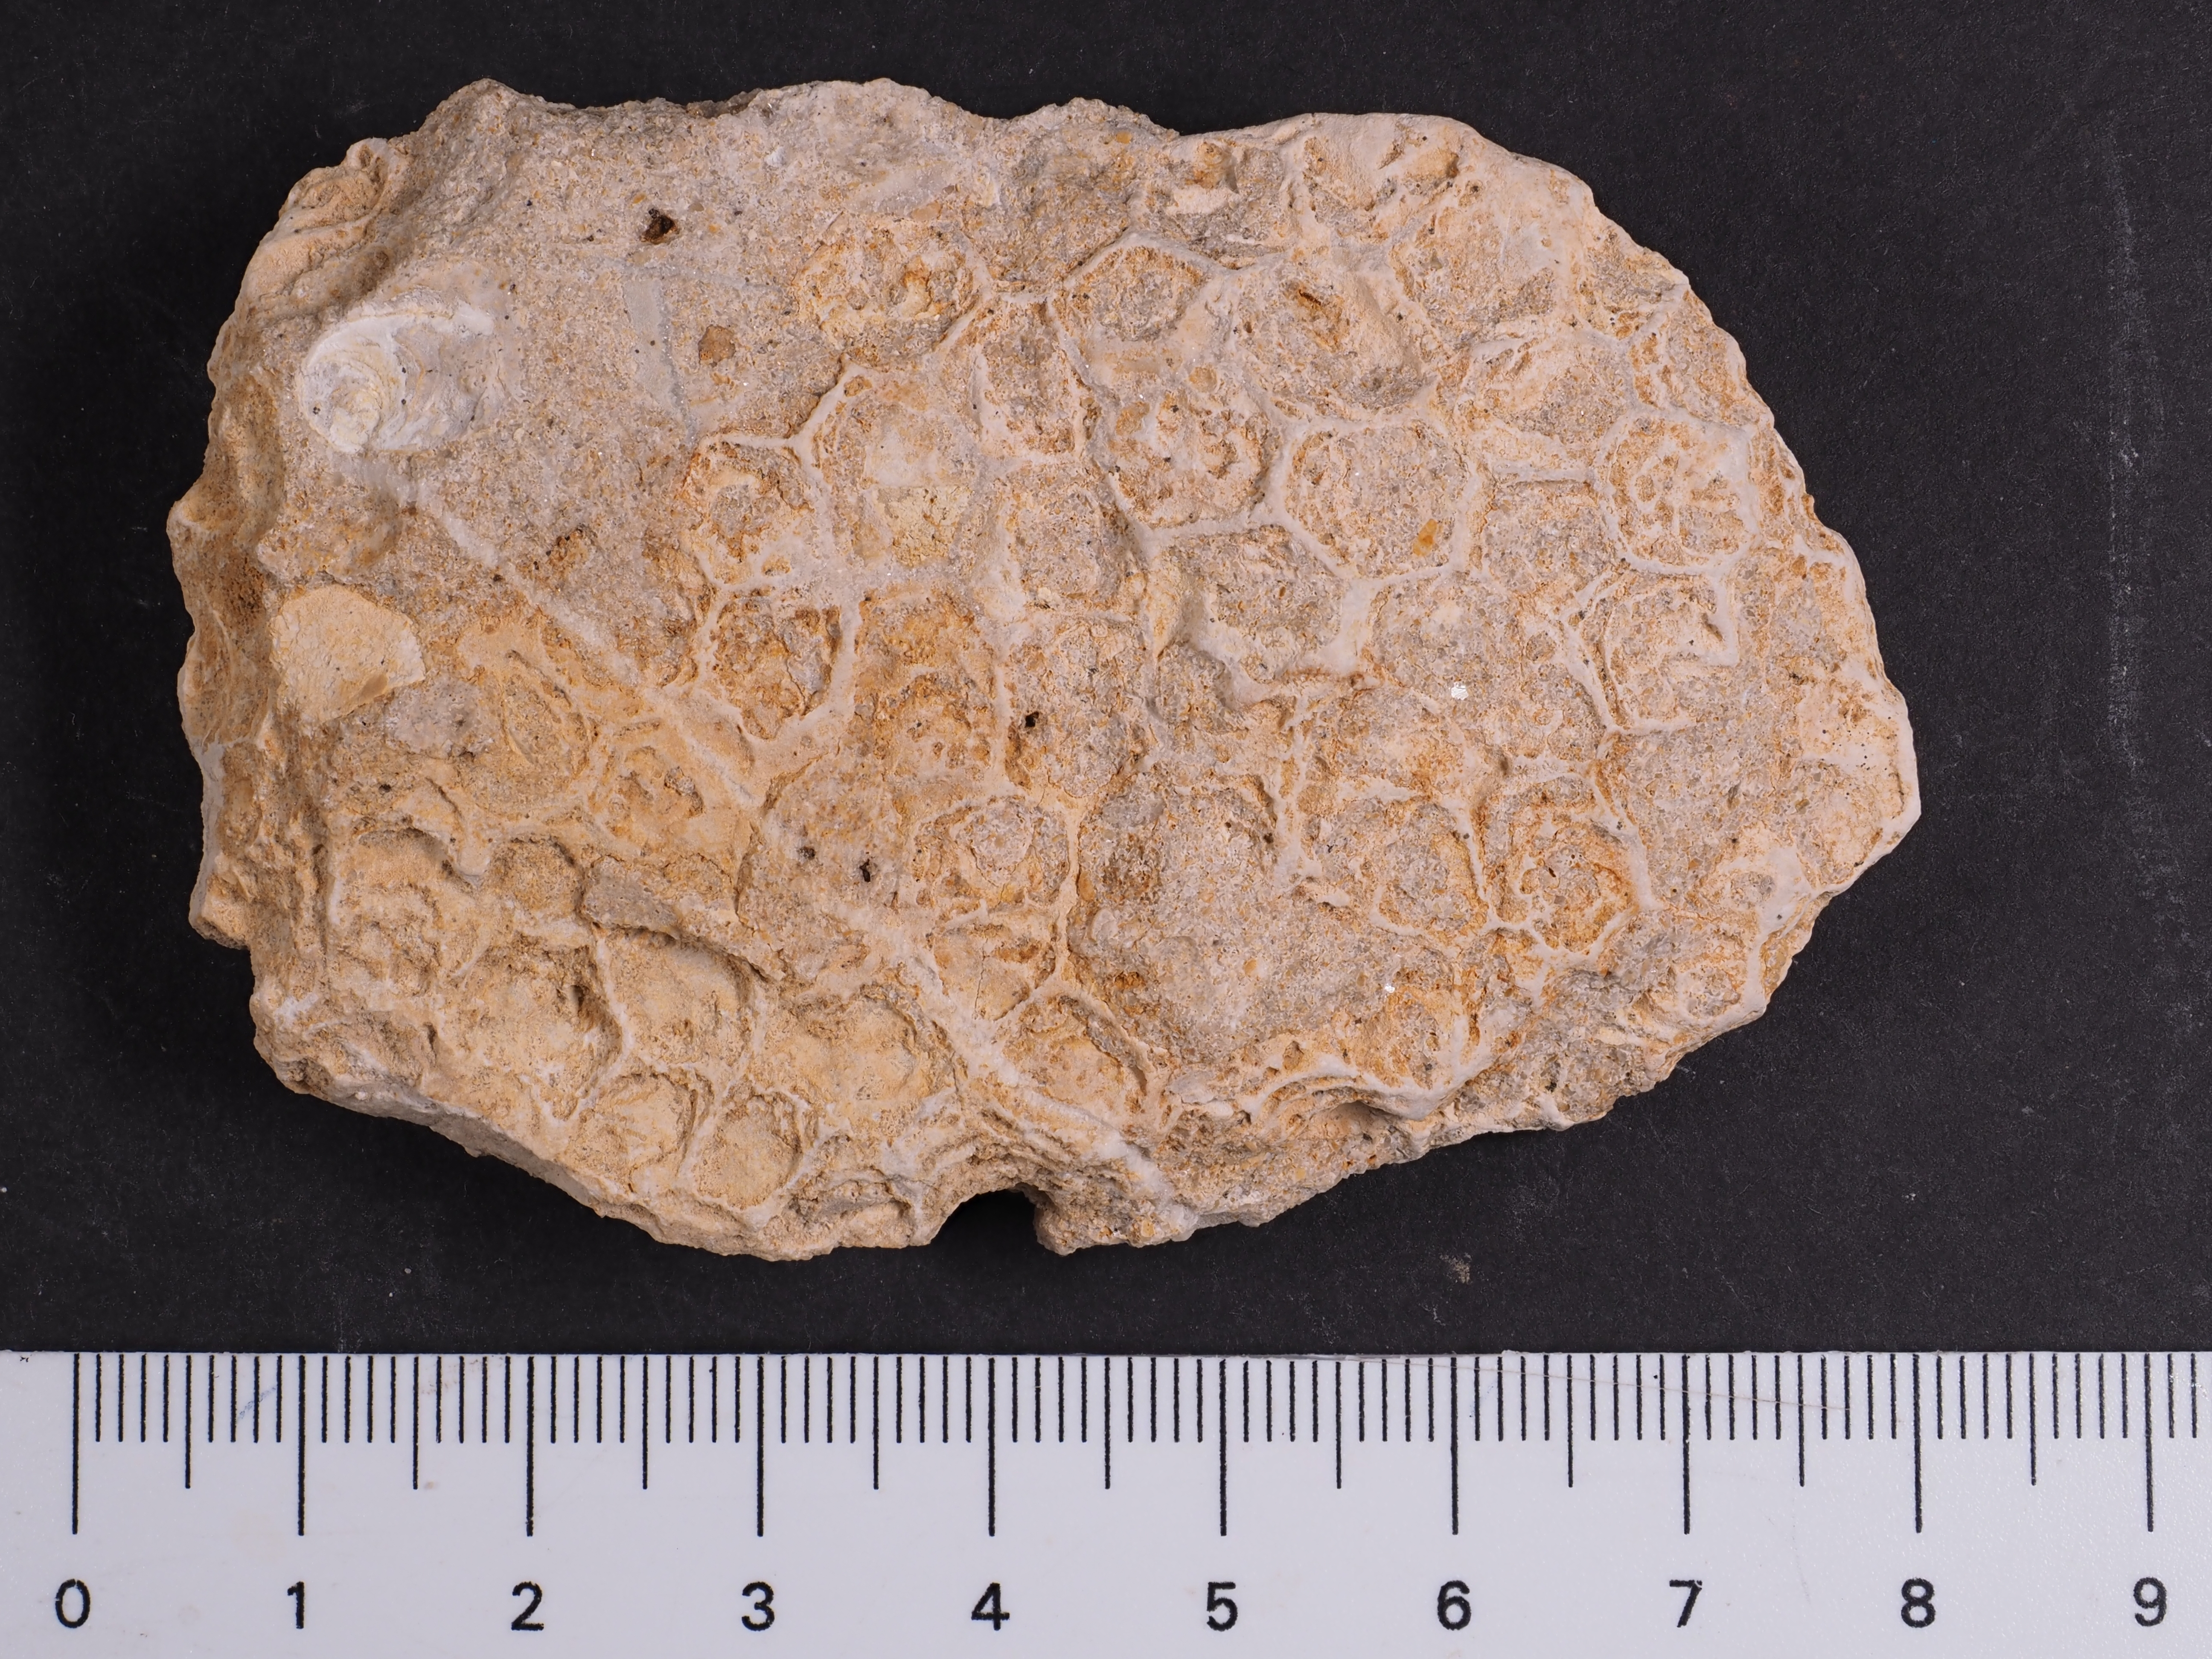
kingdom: Animalia
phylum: Cnidaria
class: Anthozoa
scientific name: Anthozoa
